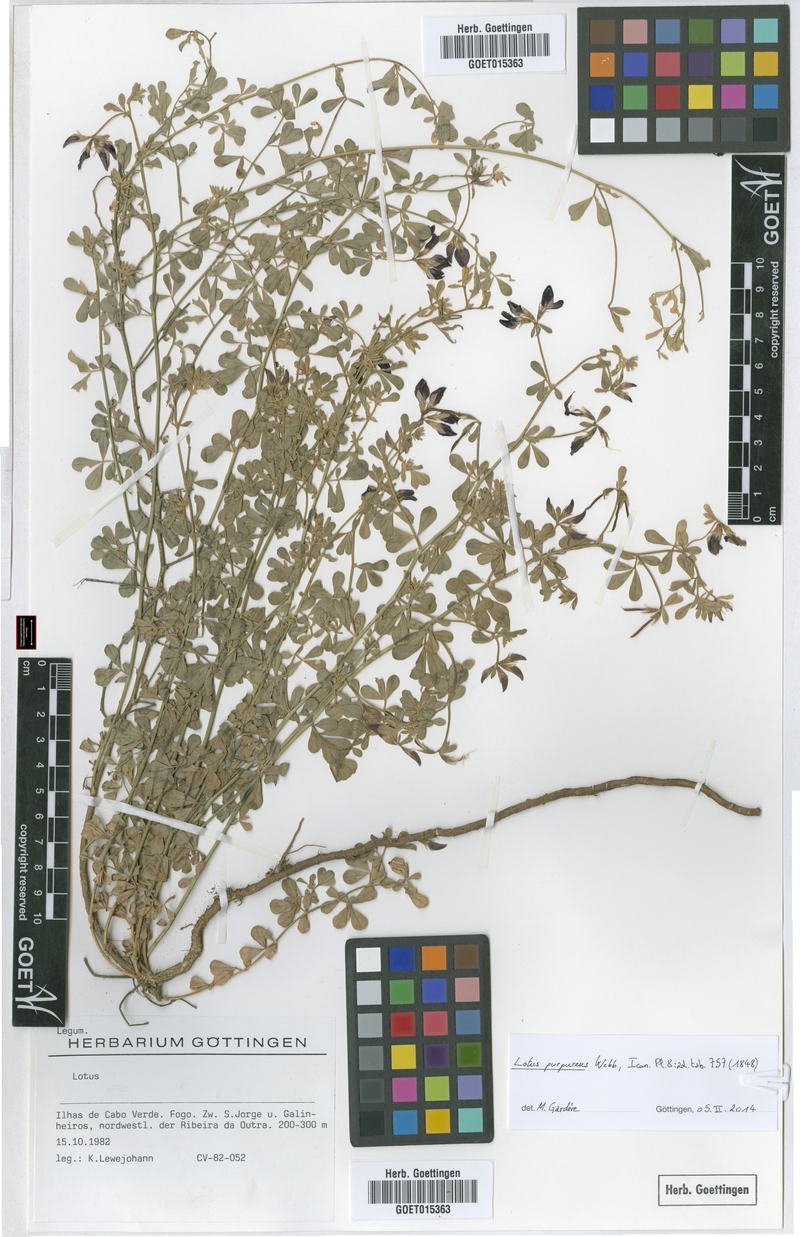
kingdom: Plantae
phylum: Tracheophyta
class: Magnoliopsida
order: Fabales
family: Fabaceae
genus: Lotus
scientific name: Lotus purpureus
